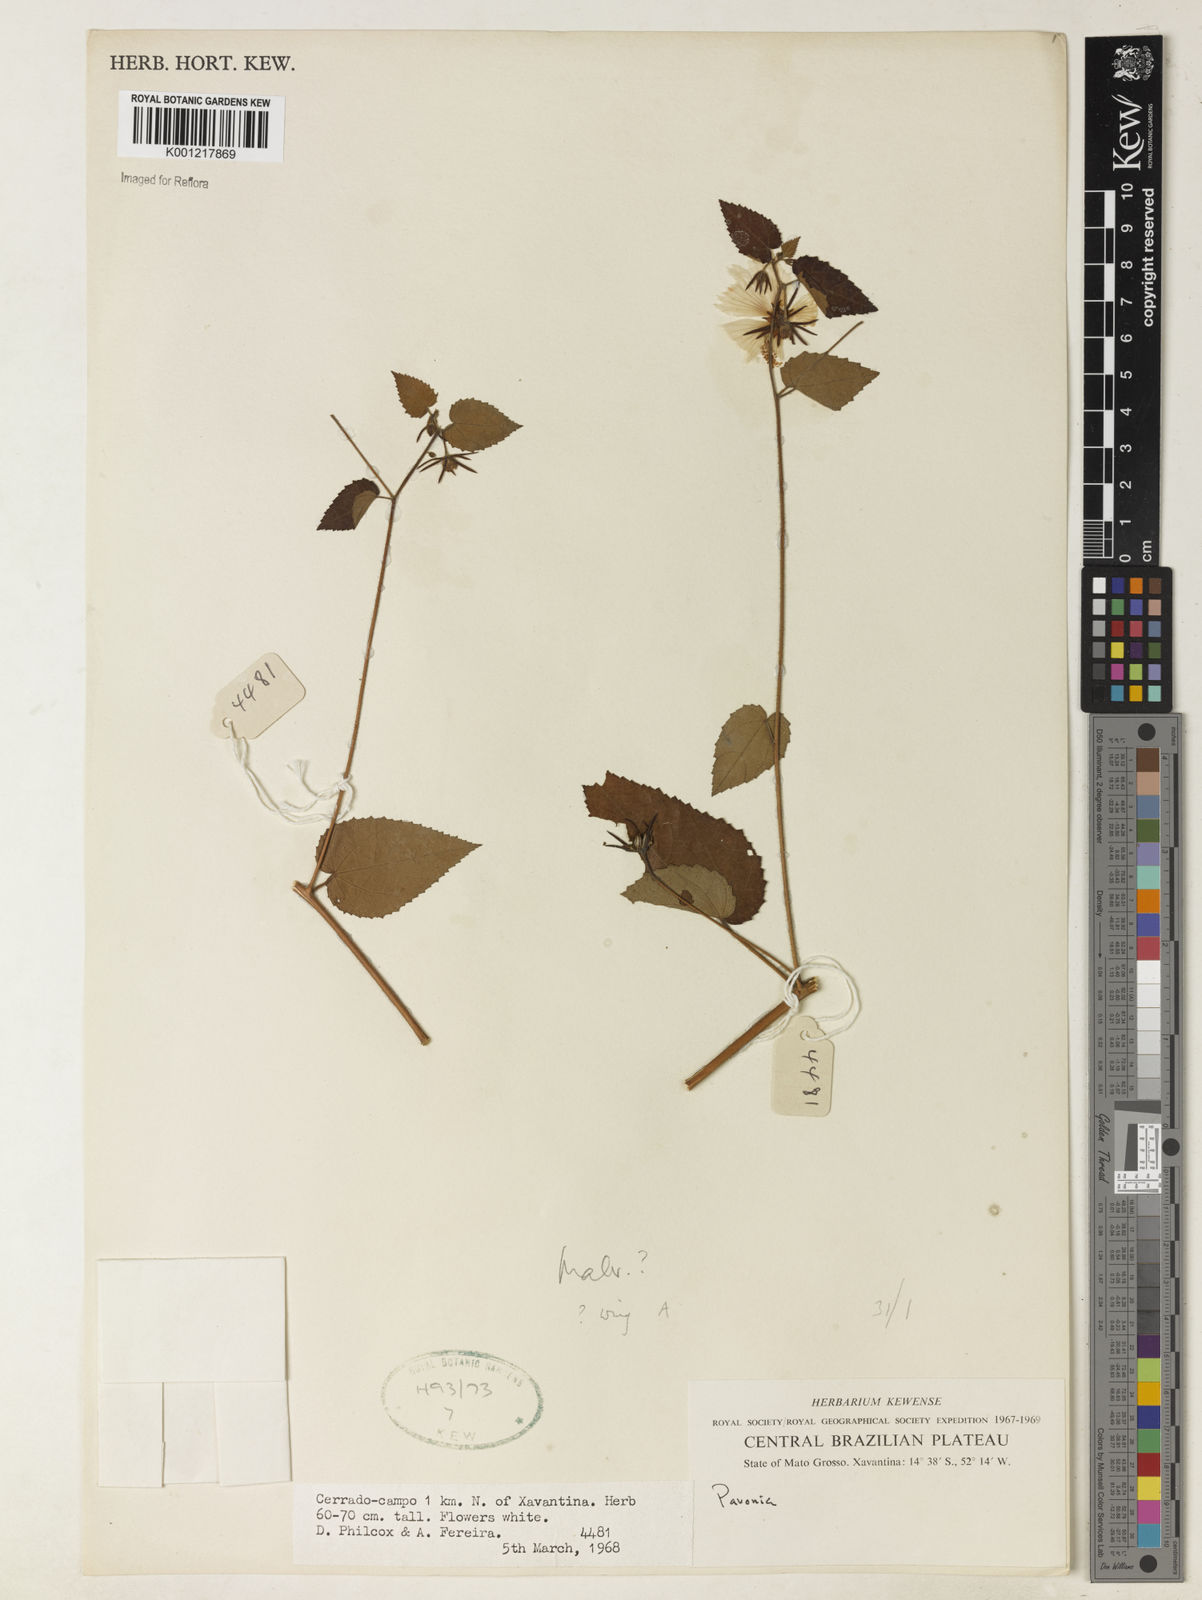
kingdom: Plantae
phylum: Tracheophyta
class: Magnoliopsida
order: Malvales
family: Malvaceae
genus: Pavonia
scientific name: Pavonia
